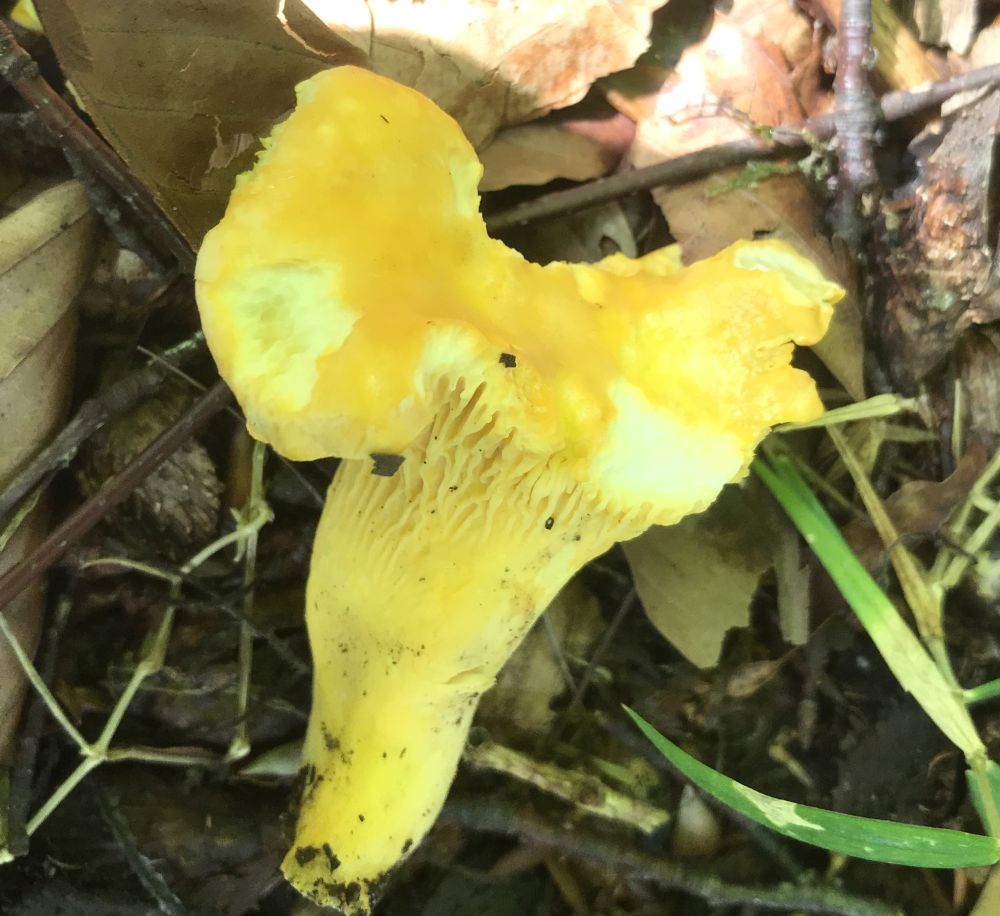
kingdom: Fungi
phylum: Basidiomycota
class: Agaricomycetes
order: Cantharellales
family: Hydnaceae
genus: Cantharellus
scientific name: Cantharellus pallens
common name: bleg kantarel
